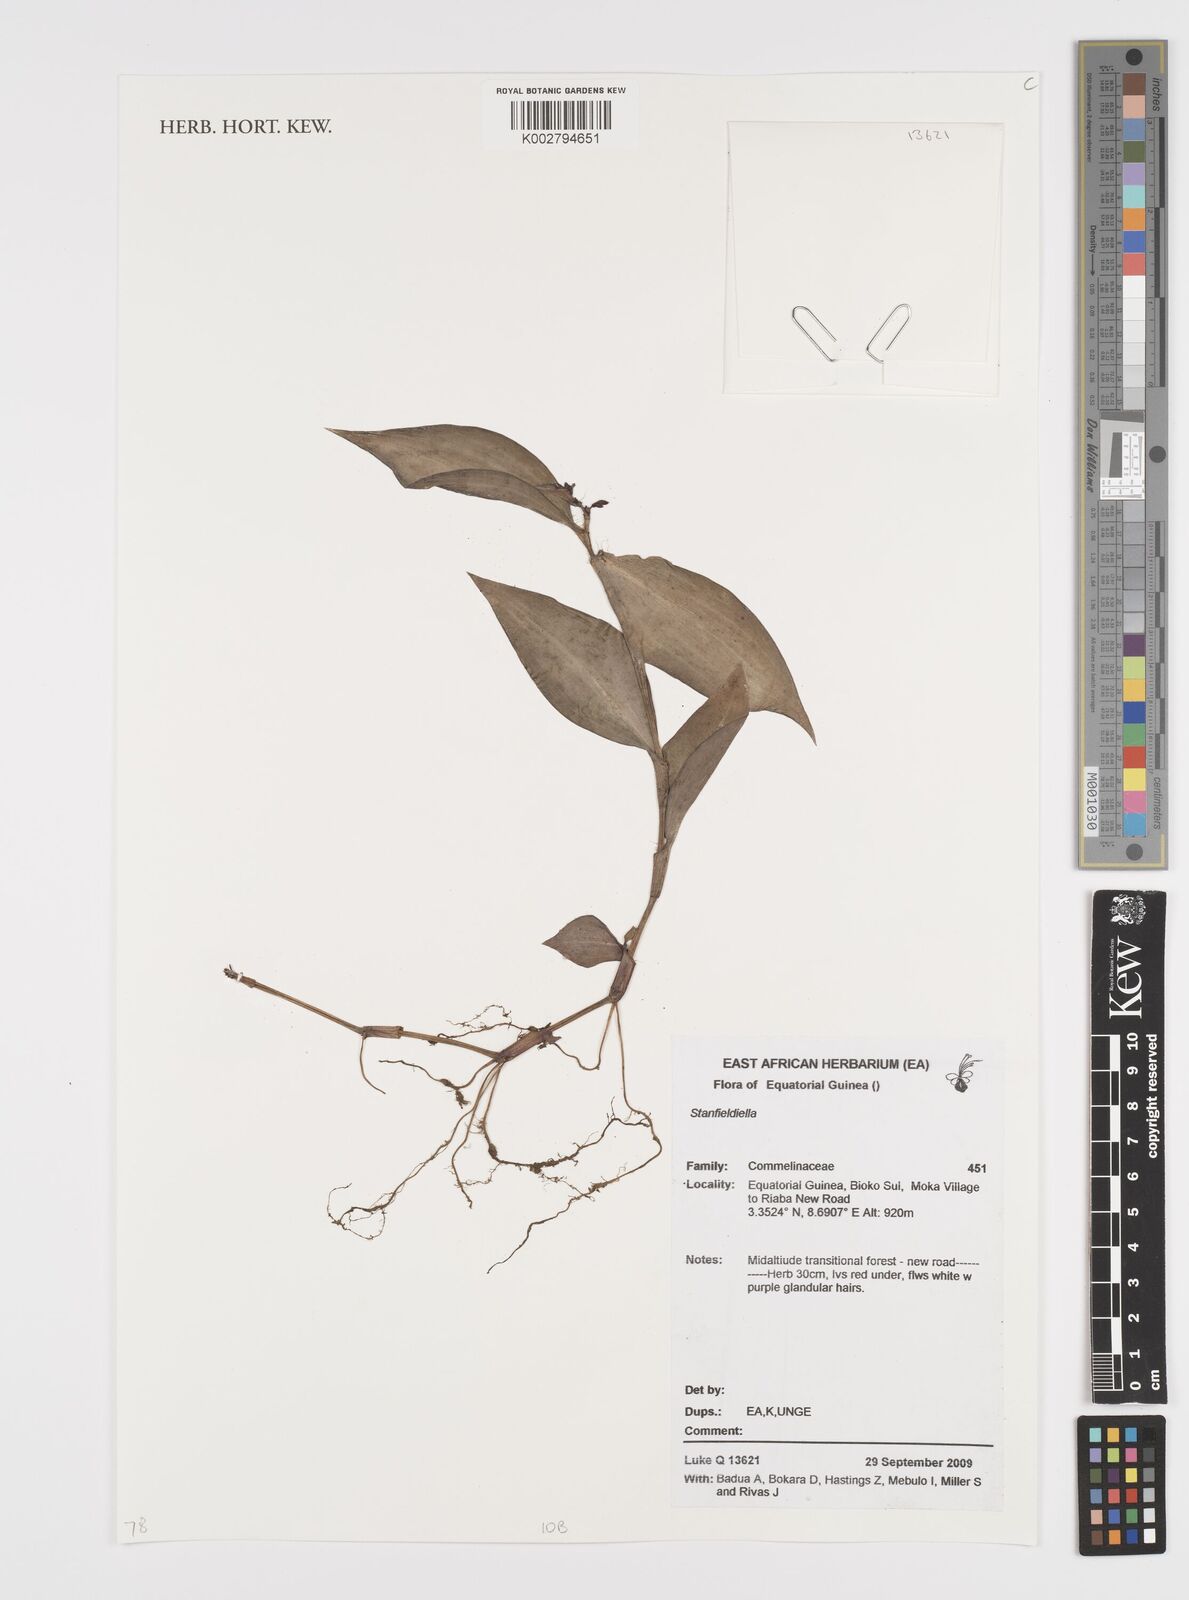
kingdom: Plantae
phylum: Tracheophyta
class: Liliopsida
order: Commelinales
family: Commelinaceae
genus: Stanfieldiella
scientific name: Stanfieldiella
